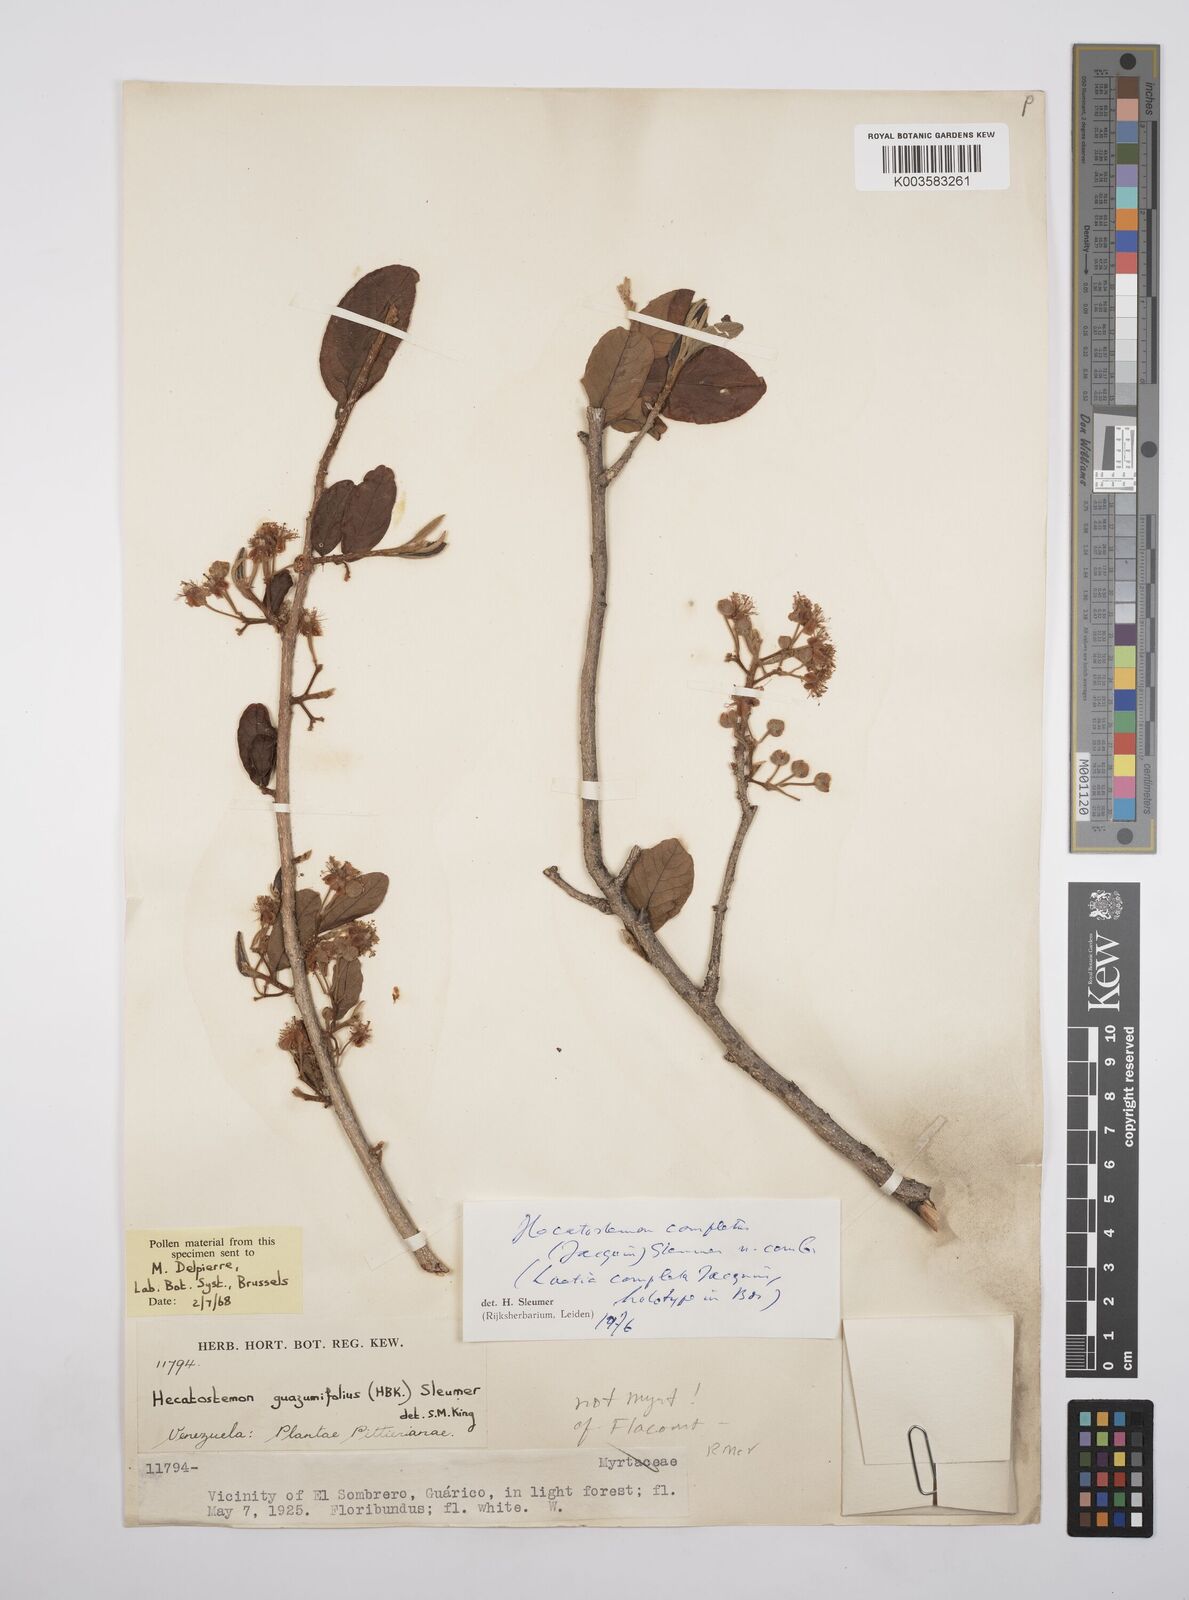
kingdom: Plantae
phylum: Tracheophyta
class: Magnoliopsida
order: Malpighiales
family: Salicaceae
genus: Casearia
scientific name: Casearia completa
